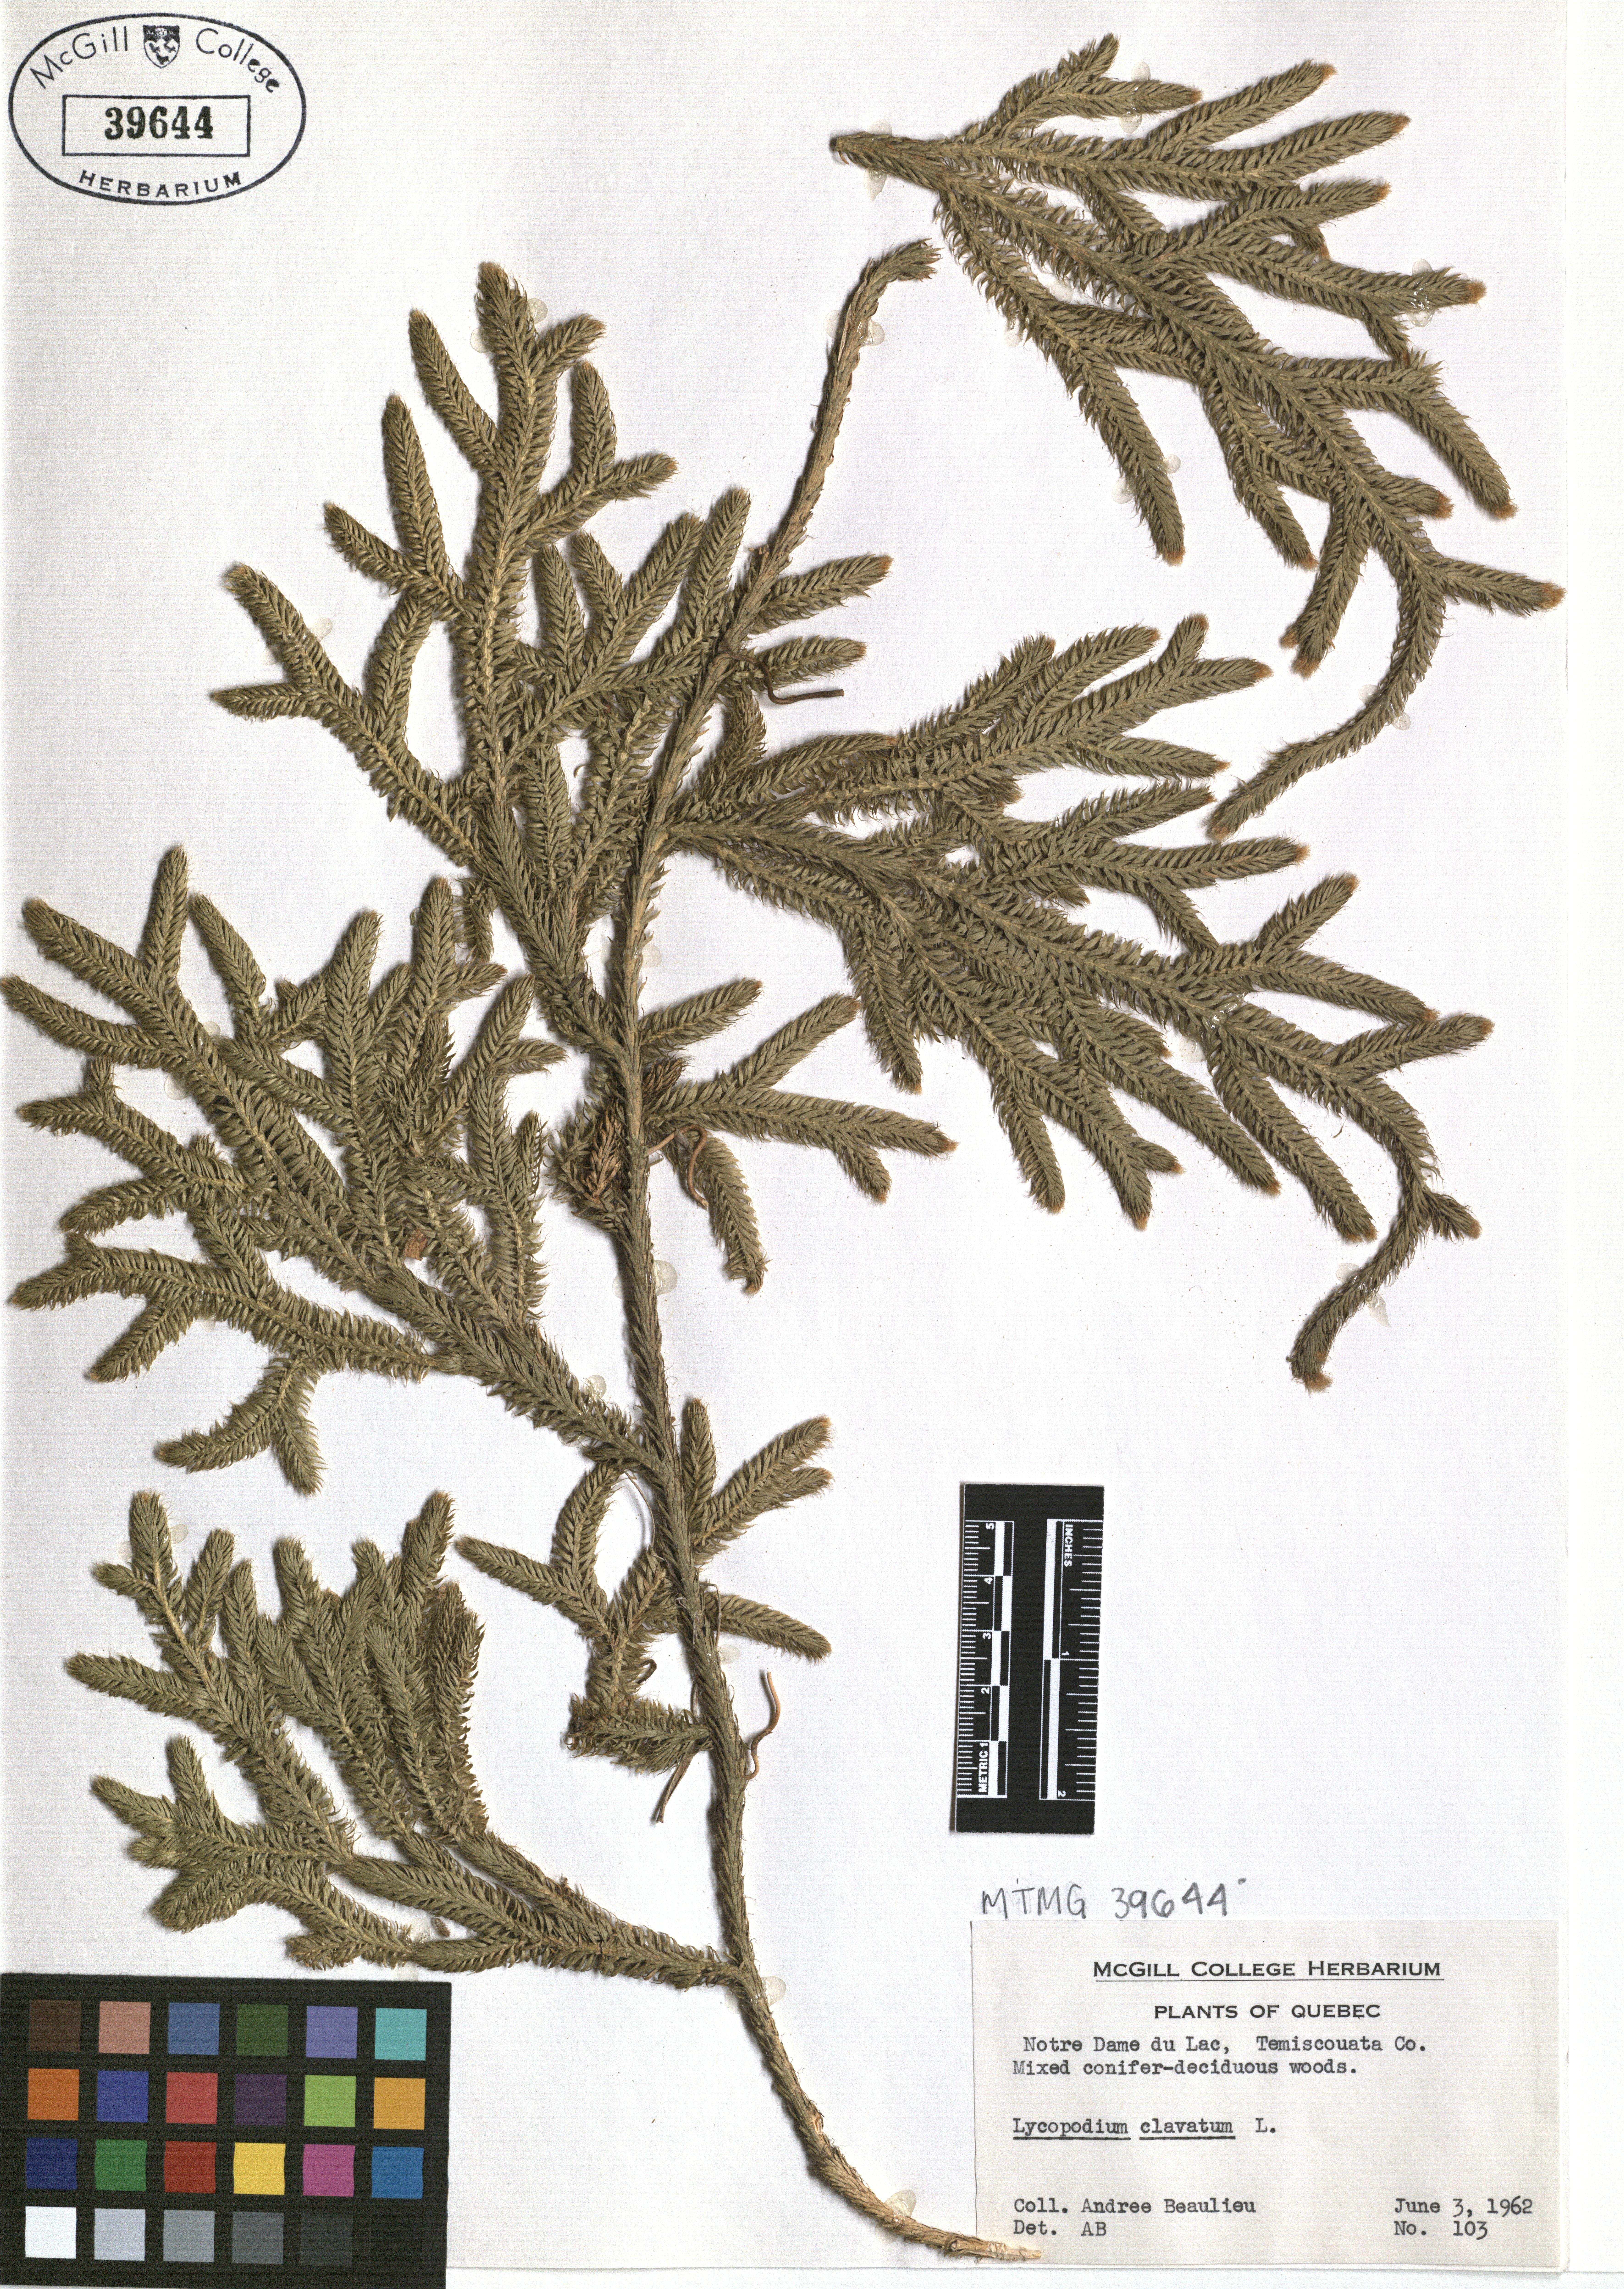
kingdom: Plantae
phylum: Tracheophyta
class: Lycopodiopsida
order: Lycopodiales
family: Lycopodiaceae
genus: Lycopodium
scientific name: Lycopodium clavatum
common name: Stag's-horn clubmoss
